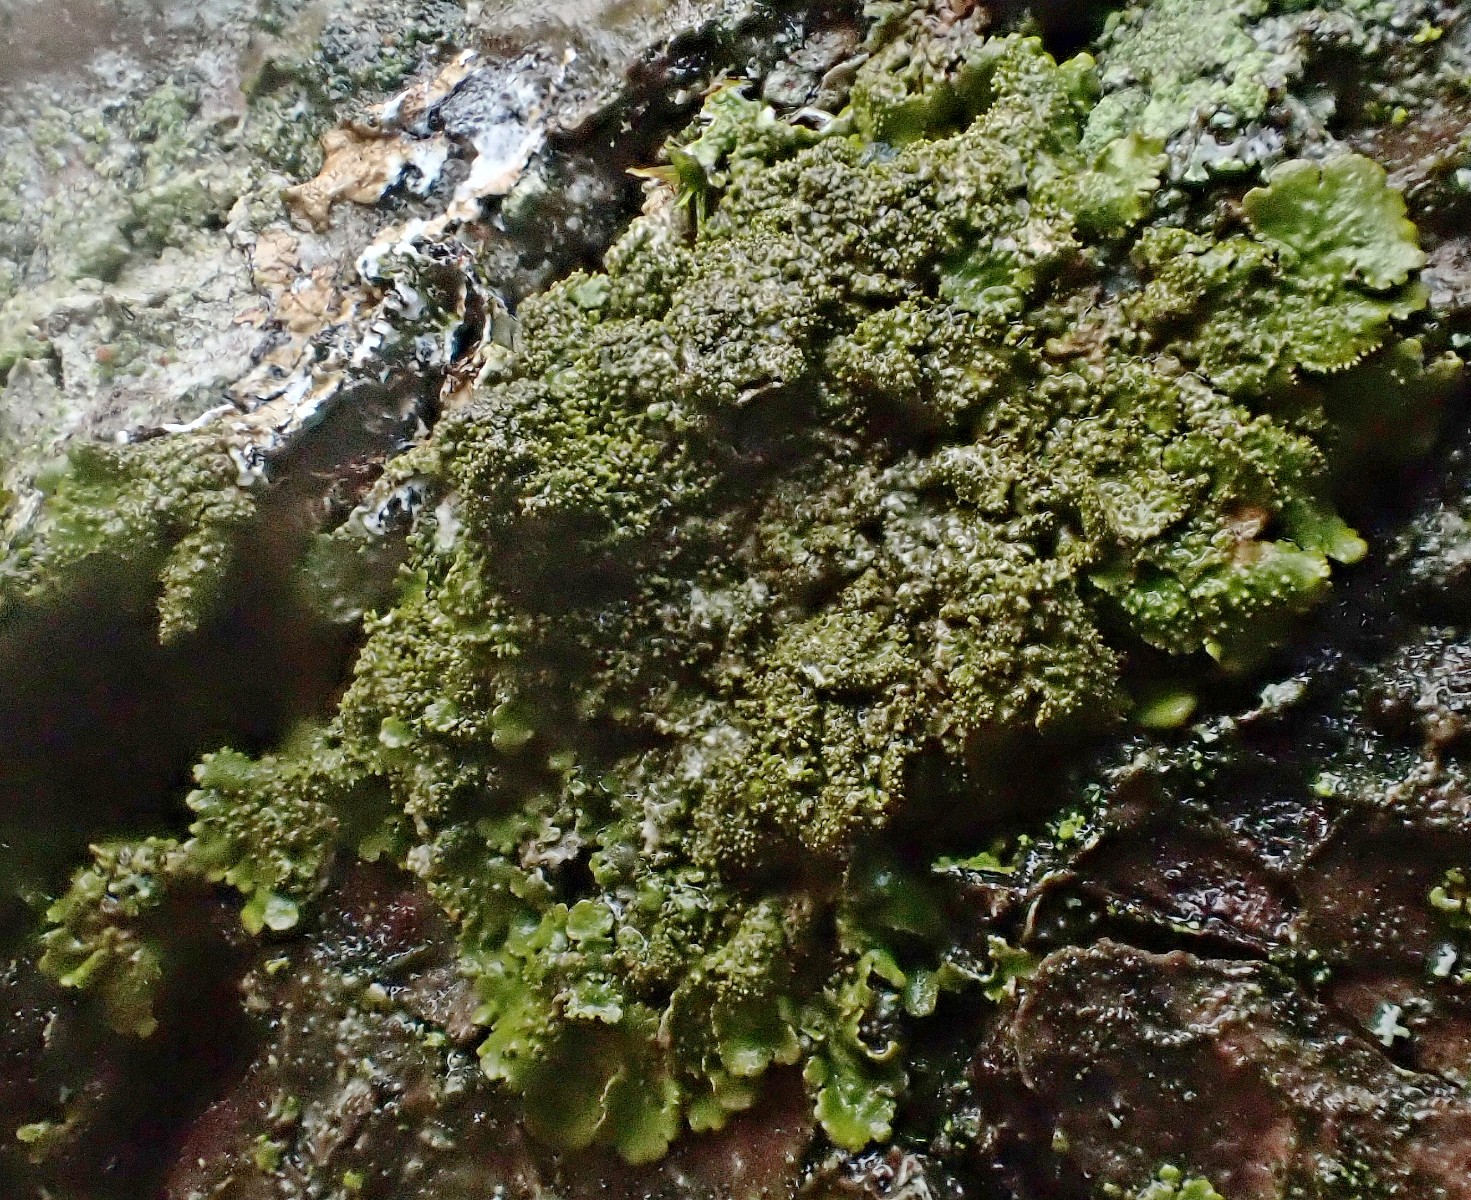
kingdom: Fungi
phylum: Ascomycota
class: Lecanoromycetes
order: Lecanorales
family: Parmeliaceae
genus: Melanelixia
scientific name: Melanelixia glabratula
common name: glinsende skållav
